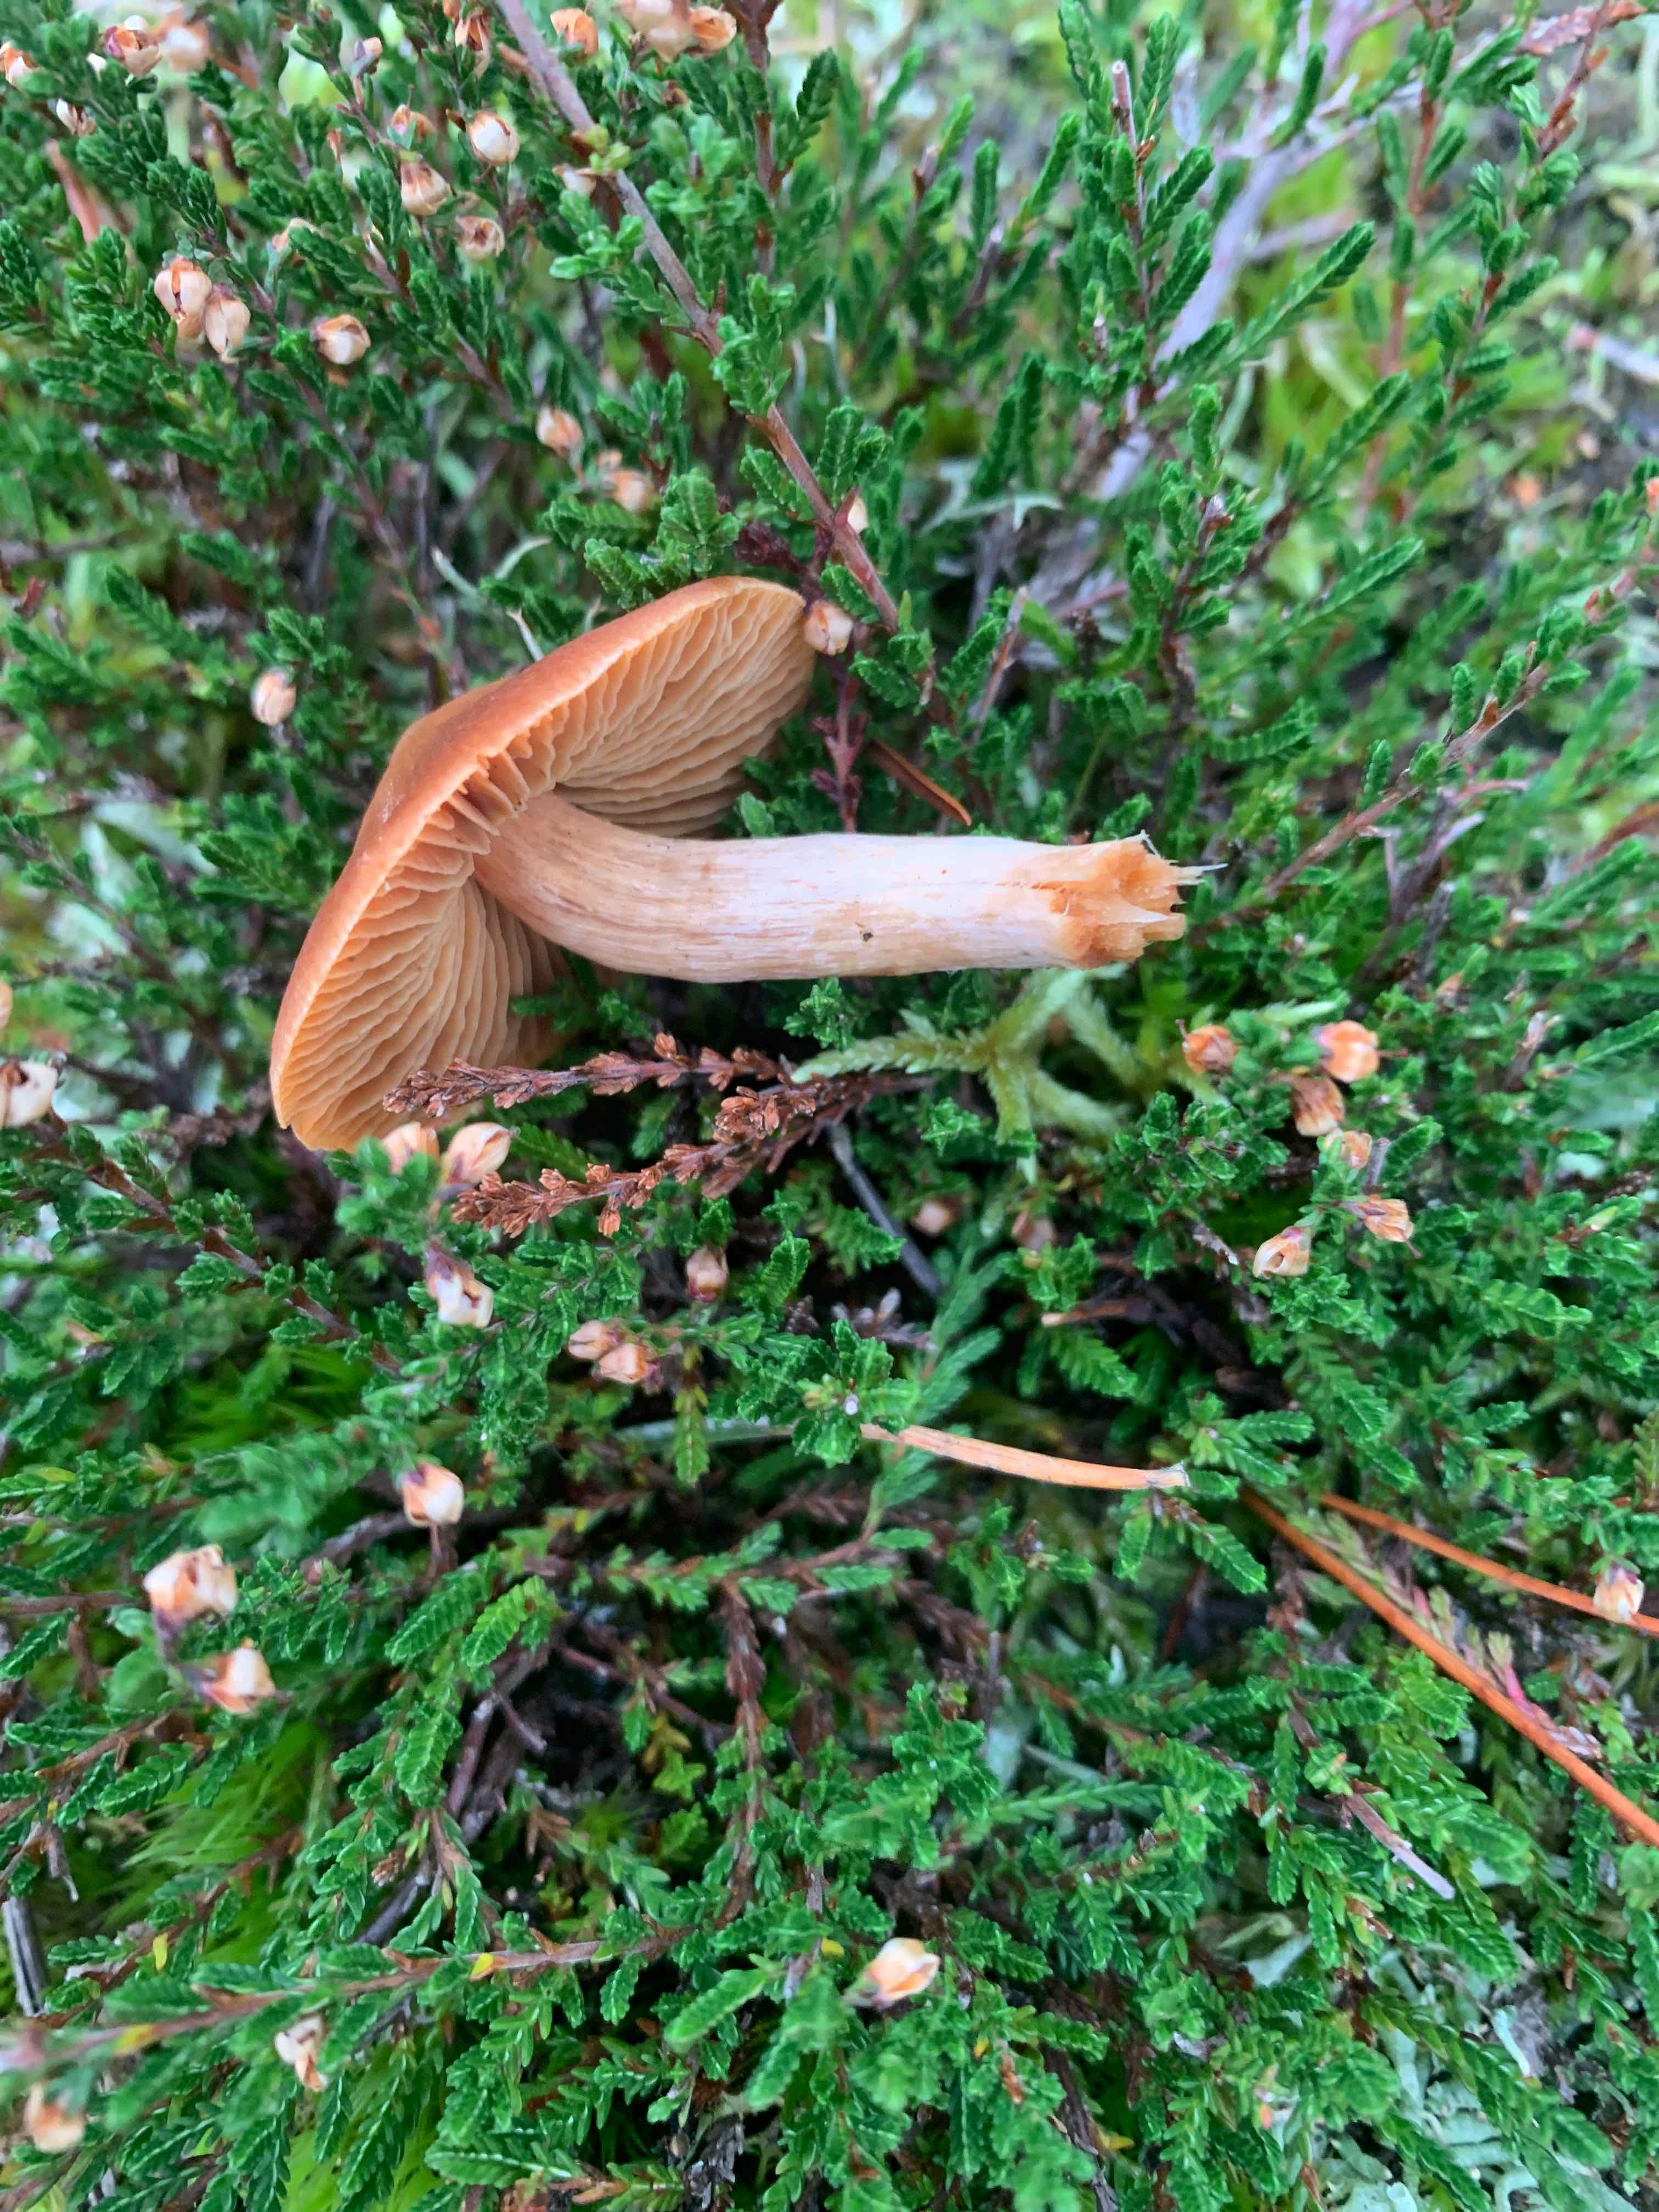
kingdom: Fungi
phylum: Basidiomycota
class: Agaricomycetes
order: Agaricales
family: Cortinariaceae
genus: Cortinarius
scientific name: Cortinarius
